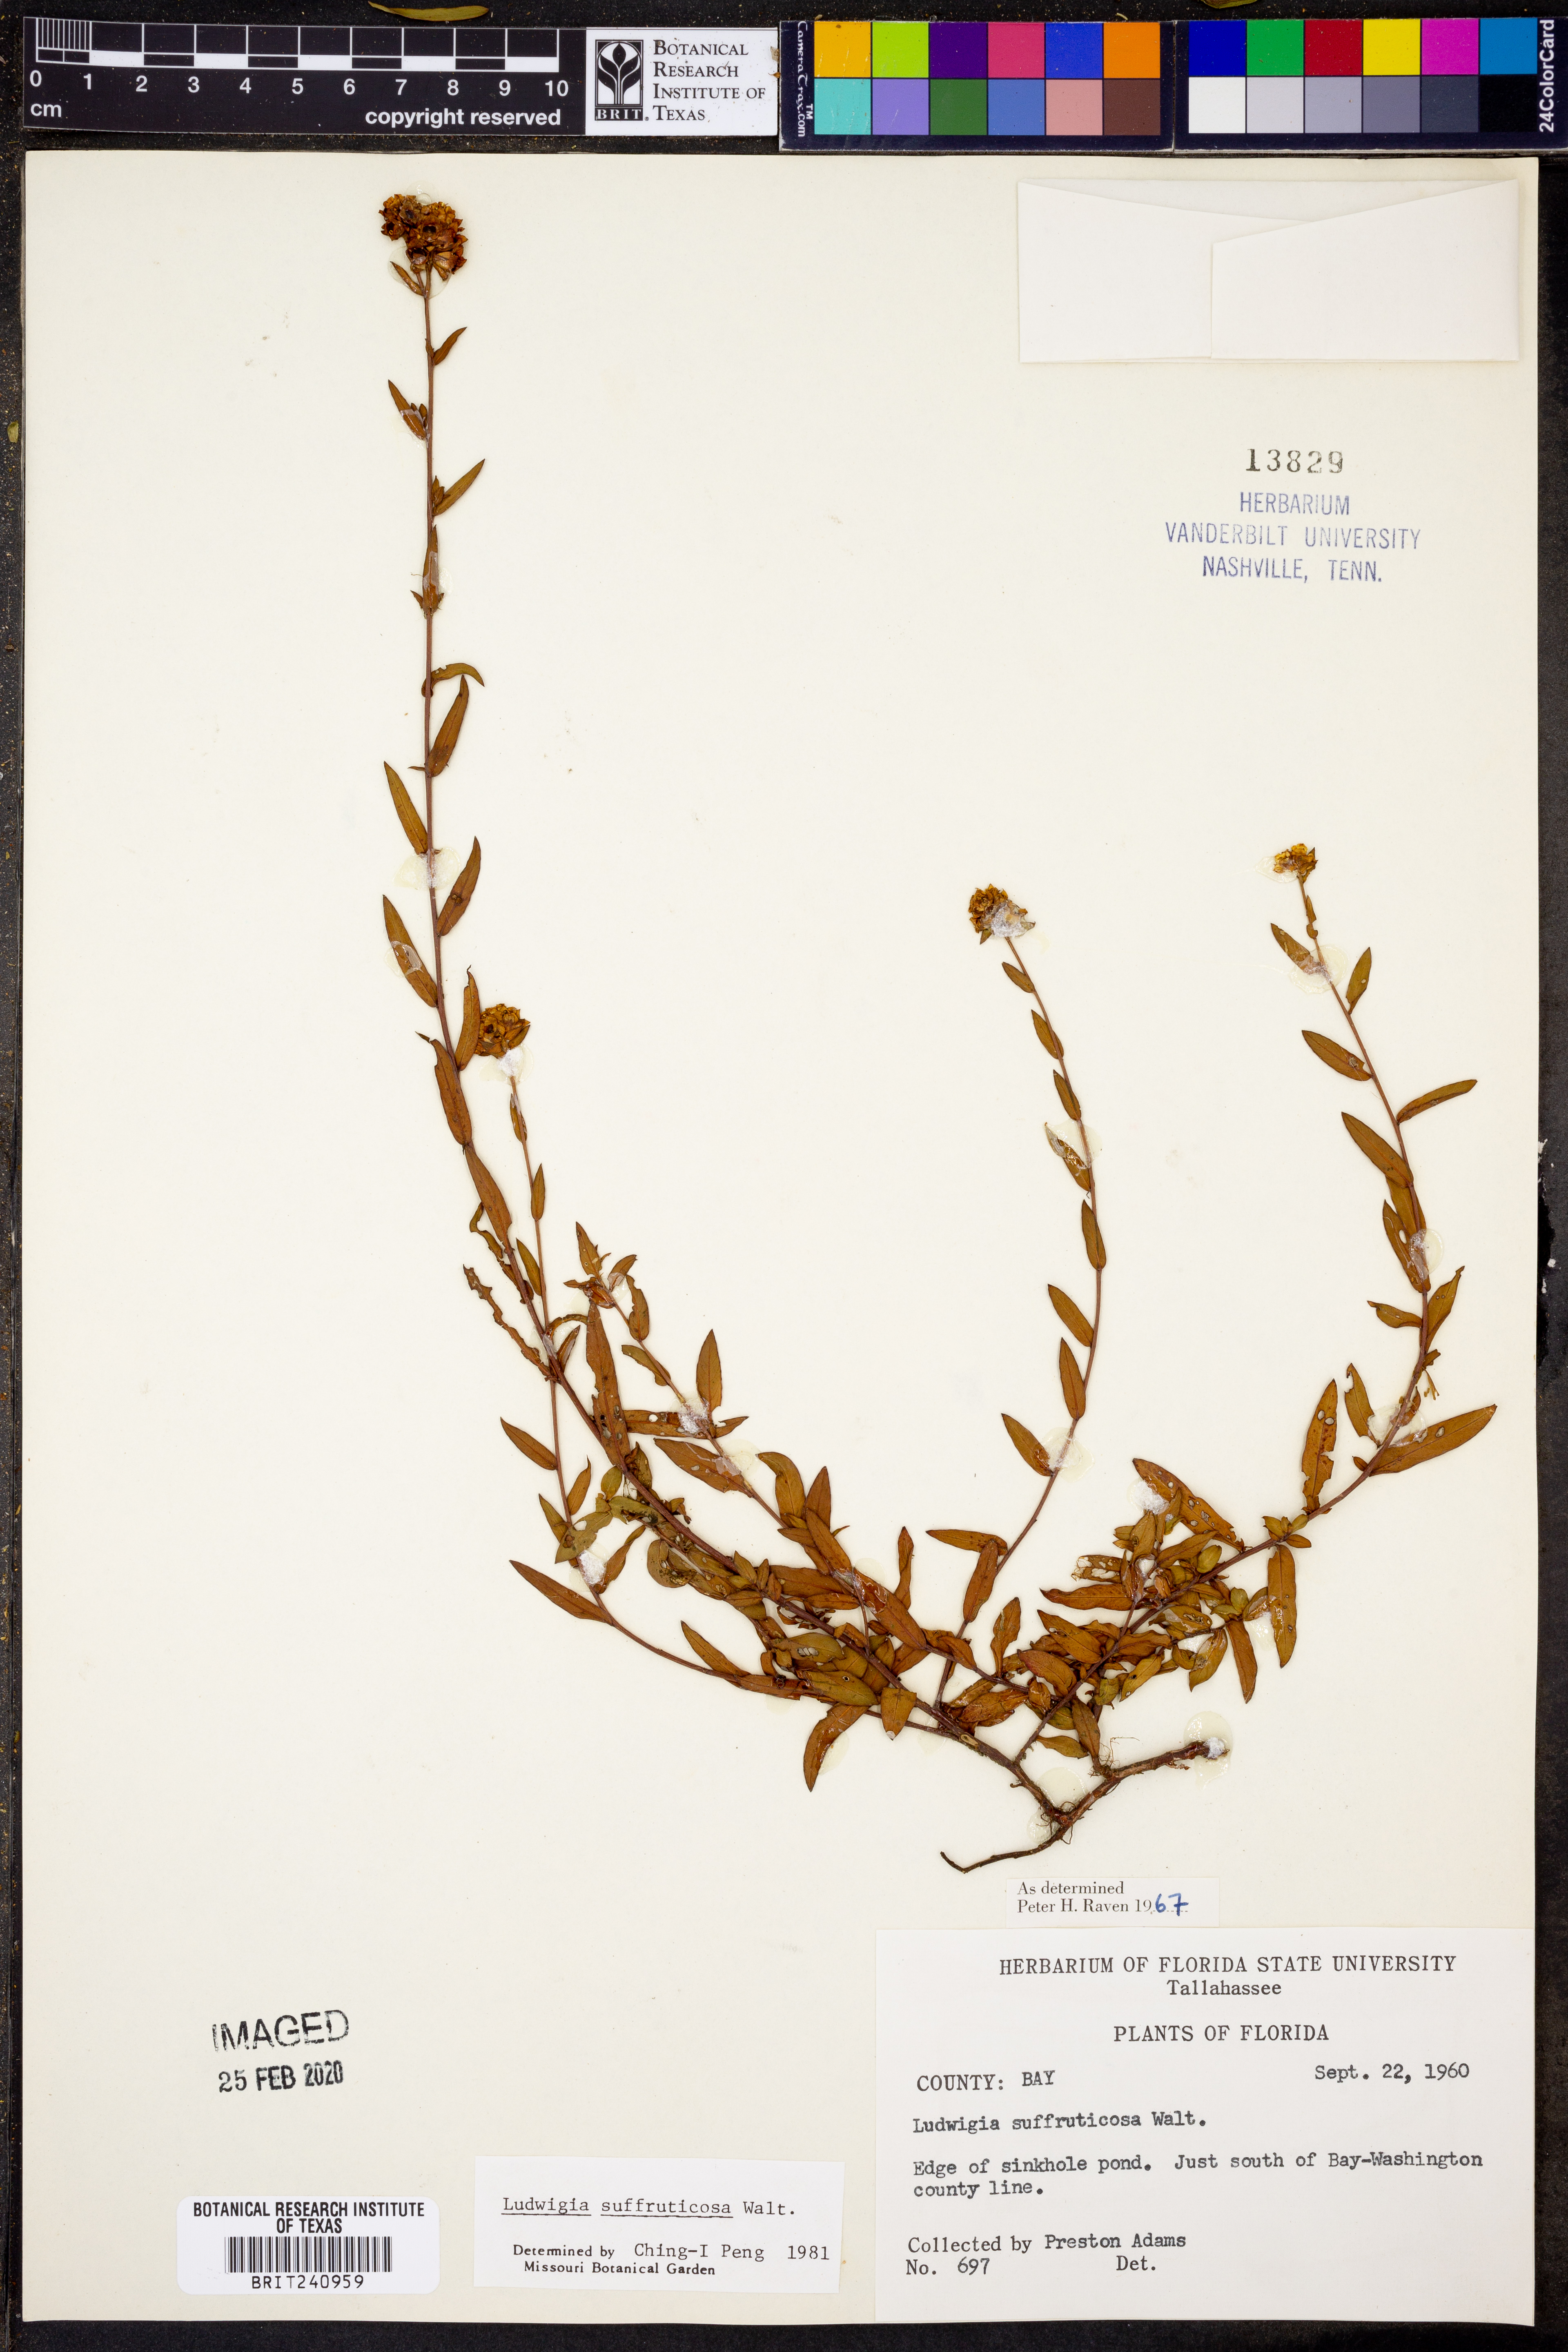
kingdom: Plantae
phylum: Tracheophyta
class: Magnoliopsida
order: Myrtales
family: Onagraceae
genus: Ludwigia
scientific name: Ludwigia suffruticosa
